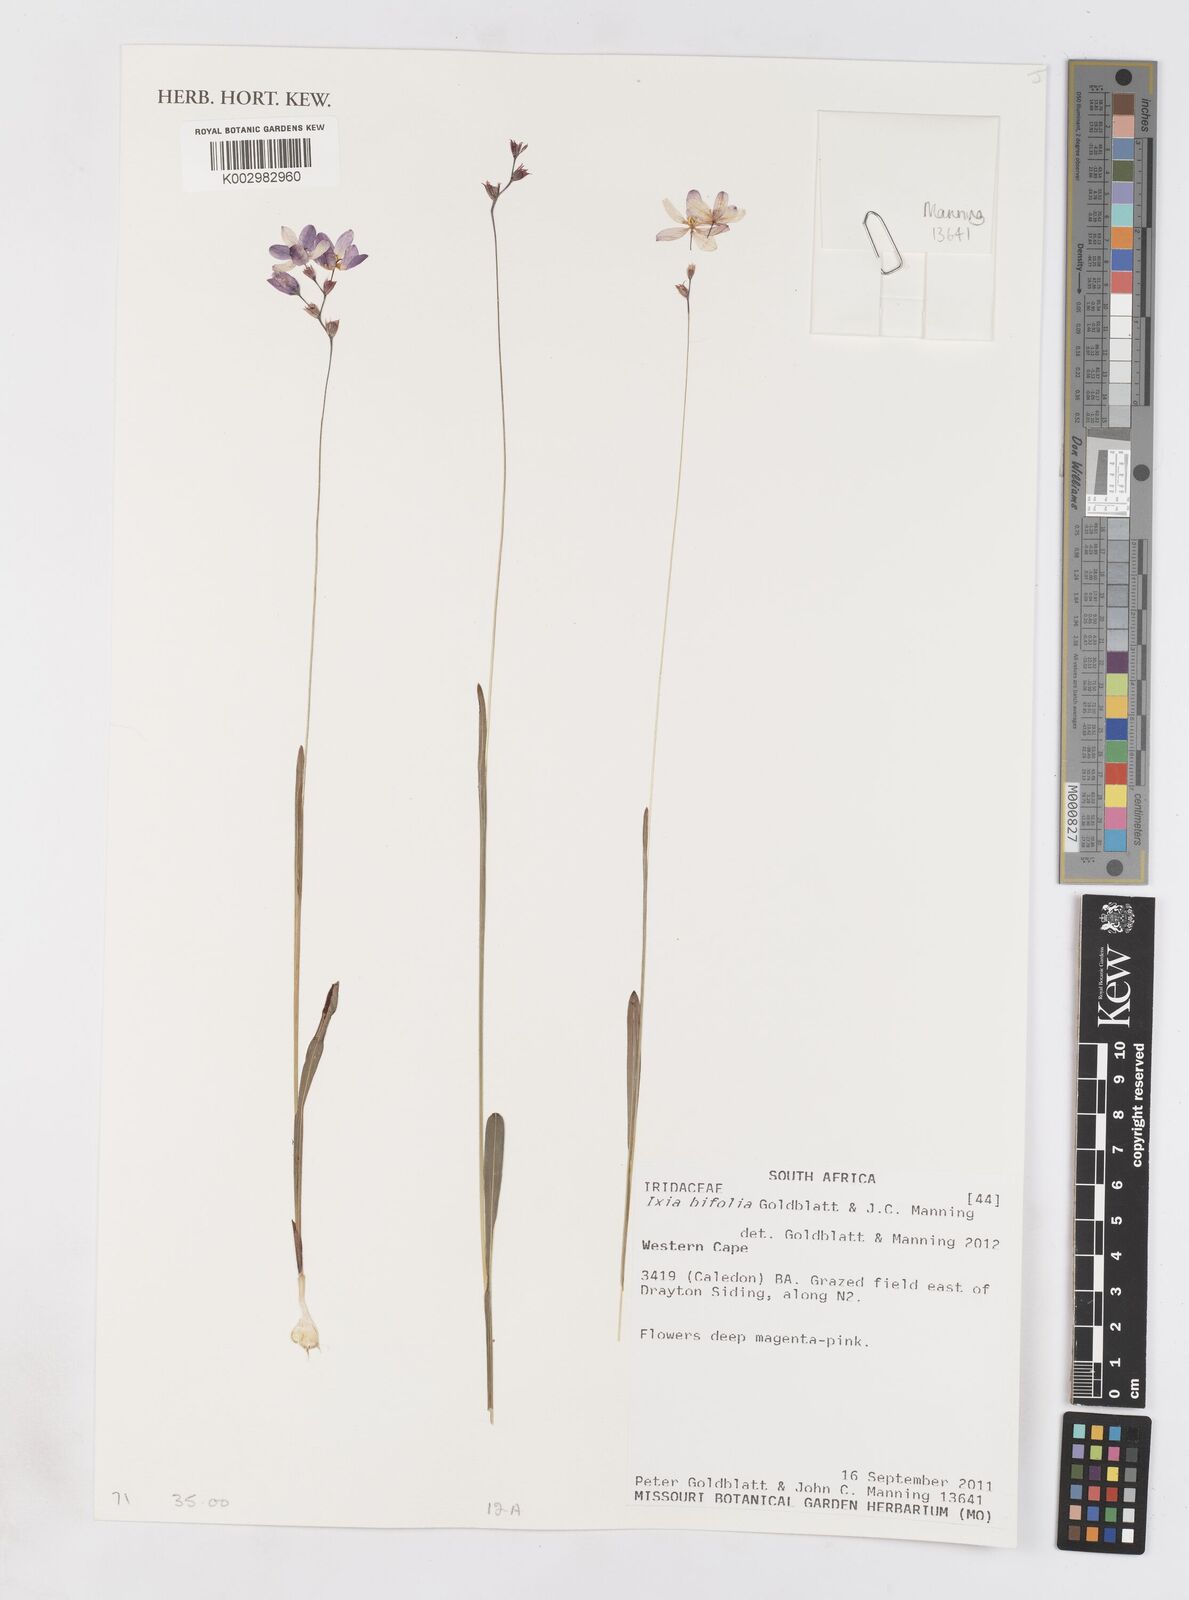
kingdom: Plantae
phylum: Tracheophyta
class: Liliopsida
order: Asparagales
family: Iridaceae
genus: Ixia
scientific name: Ixia bifolia
